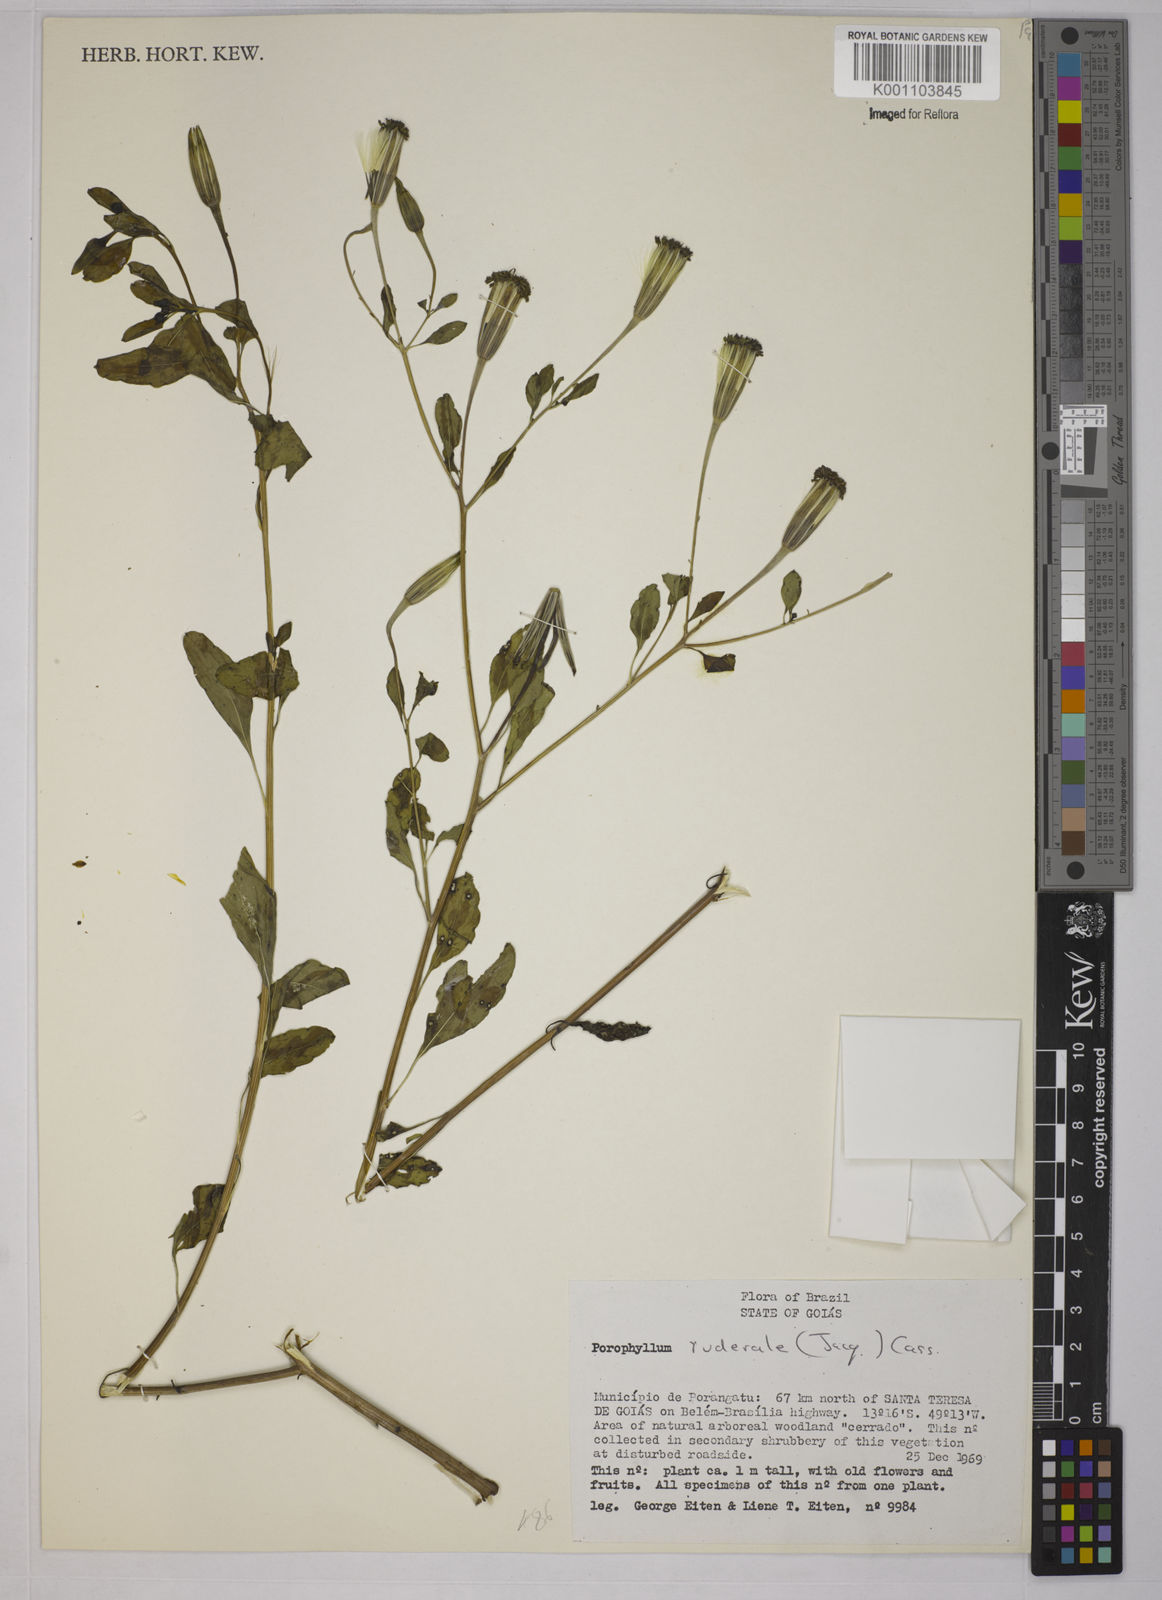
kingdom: Plantae
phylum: Tracheophyta
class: Magnoliopsida
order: Asterales
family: Asteraceae
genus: Porophyllum
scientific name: Porophyllum ruderale
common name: Yerba porosa
